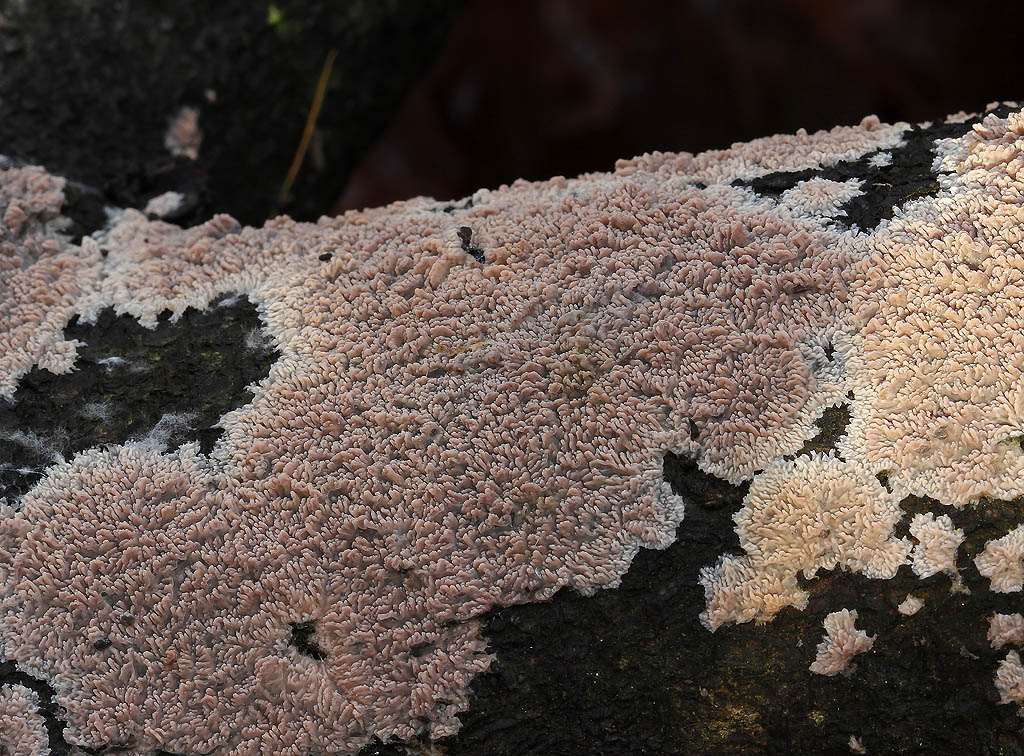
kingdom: Fungi
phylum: Basidiomycota
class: Agaricomycetes
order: Polyporales
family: Meruliaceae
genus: Phlebia
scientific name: Phlebia rufa
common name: ege-åresvamp
